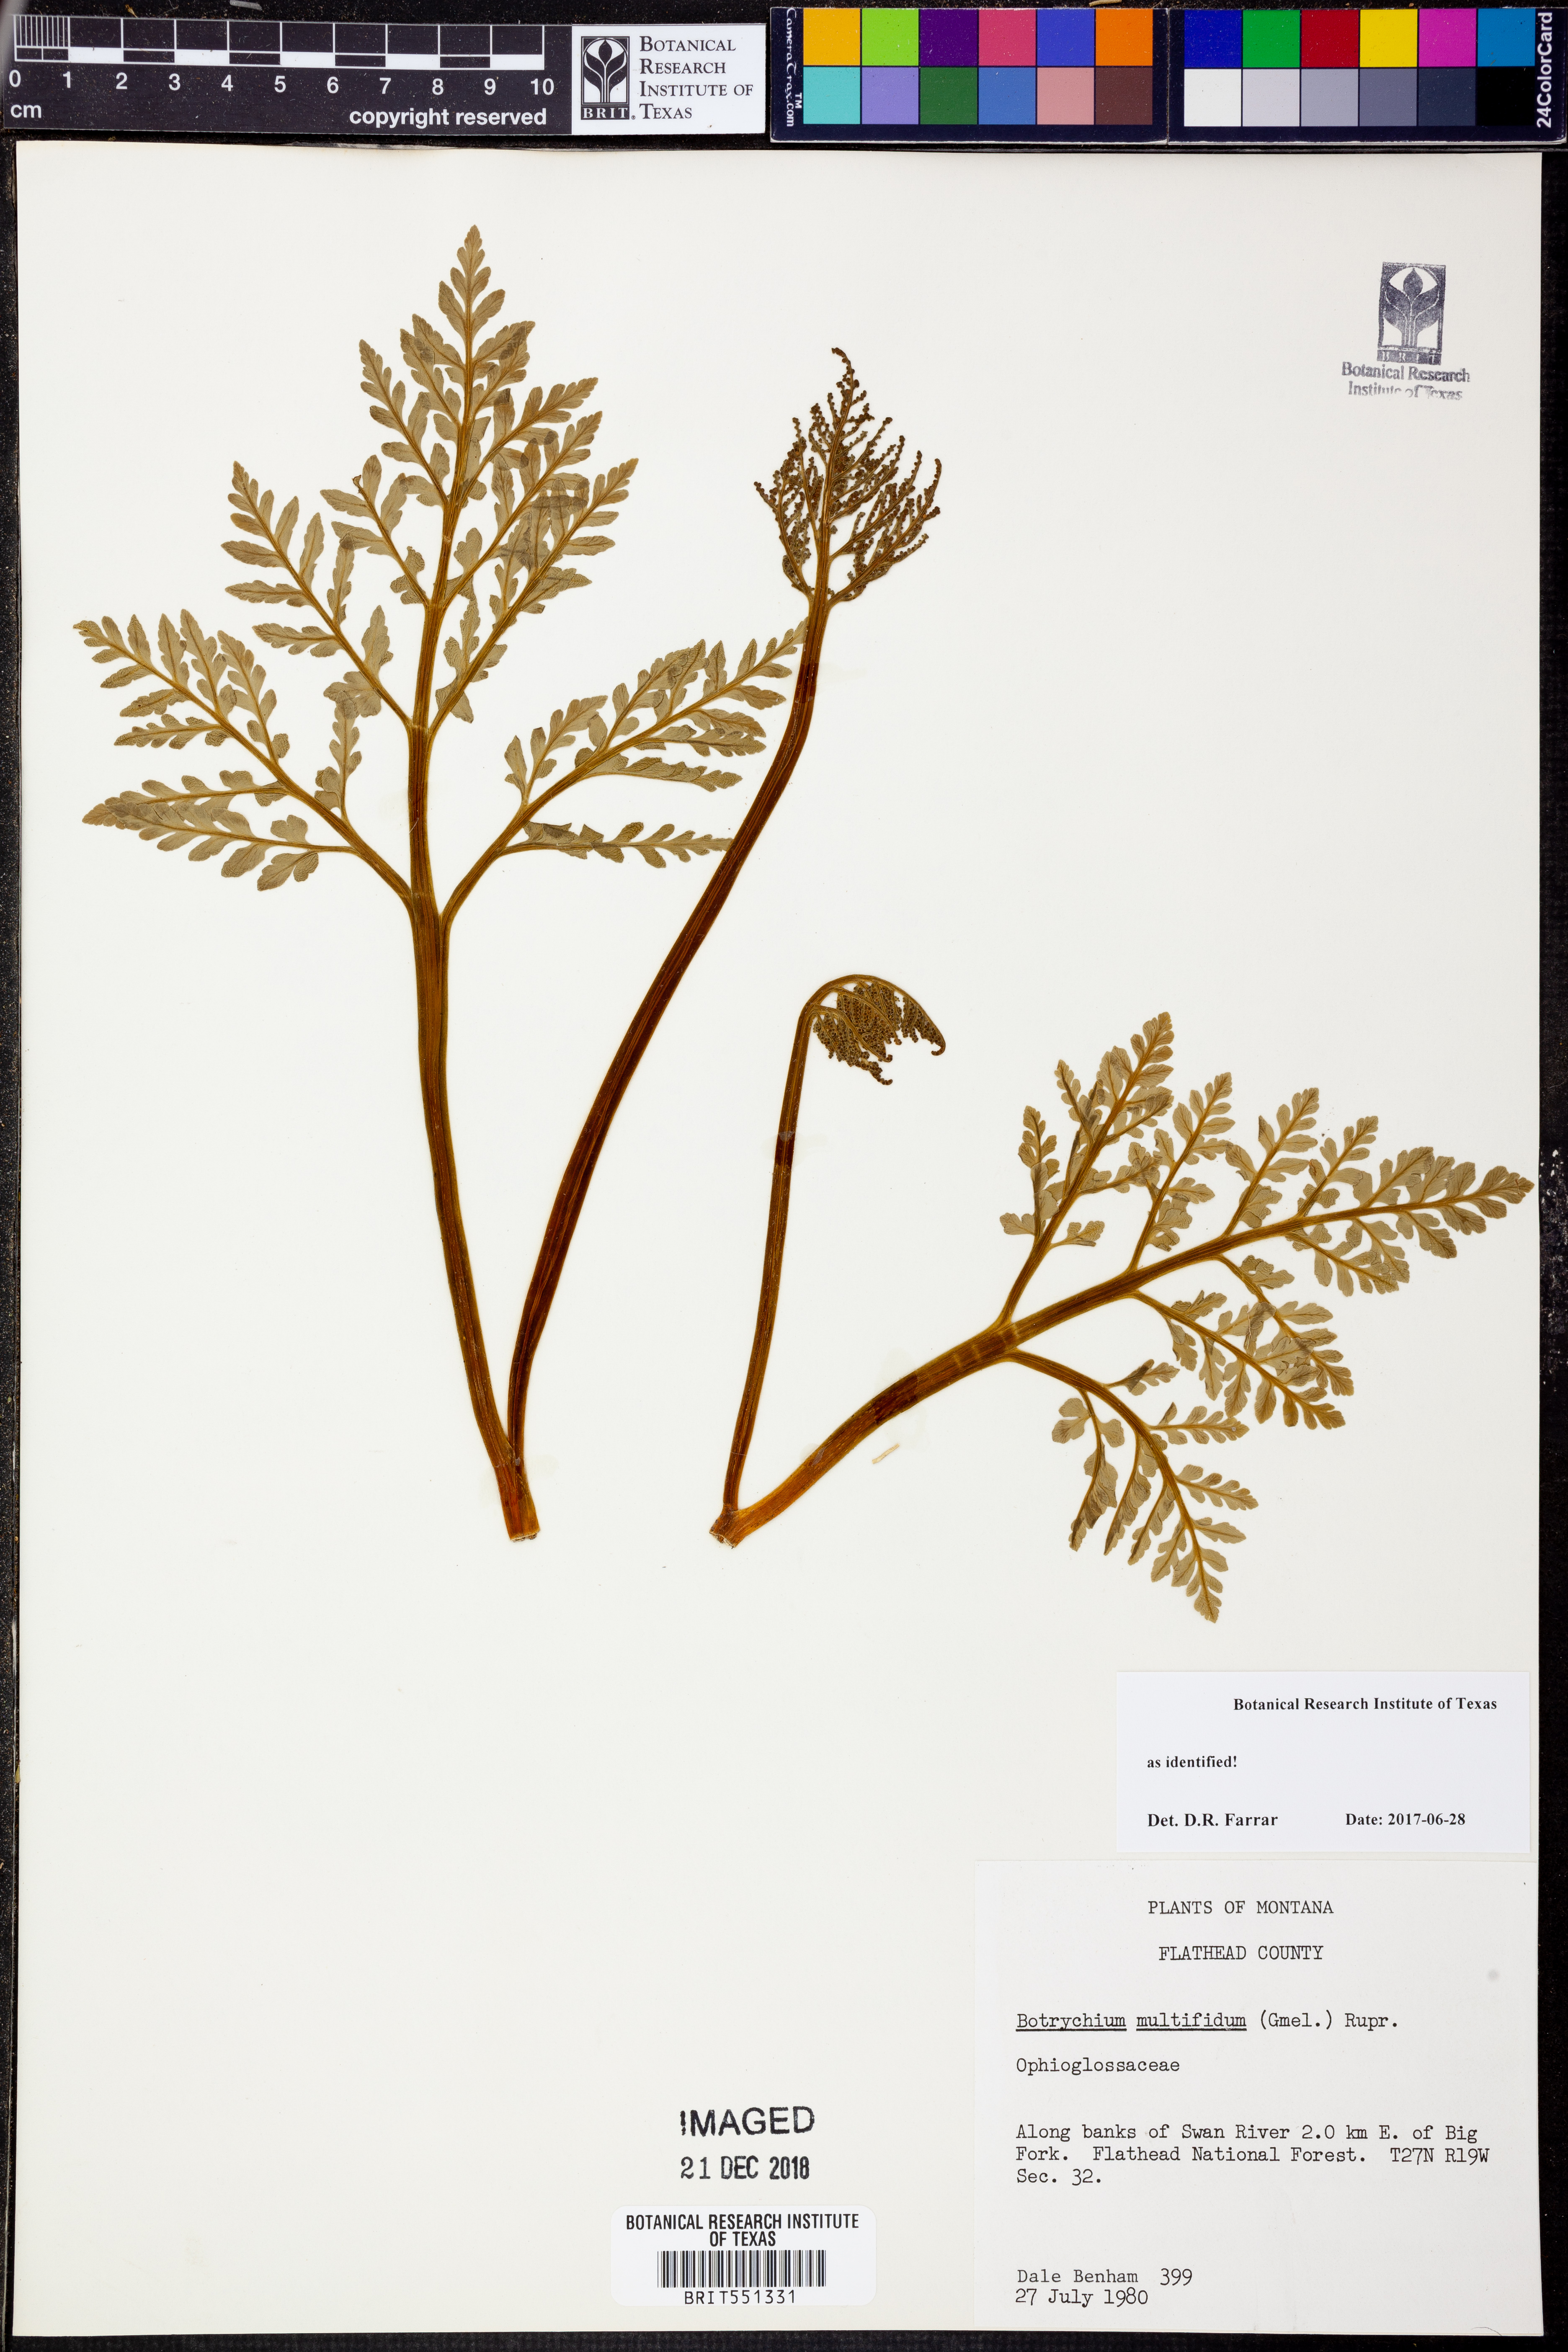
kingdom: Plantae
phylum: Tracheophyta
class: Polypodiopsida
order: Ophioglossales
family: Ophioglossaceae
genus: Sceptridium
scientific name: Sceptridium multifidum
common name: Leathery grape fern
